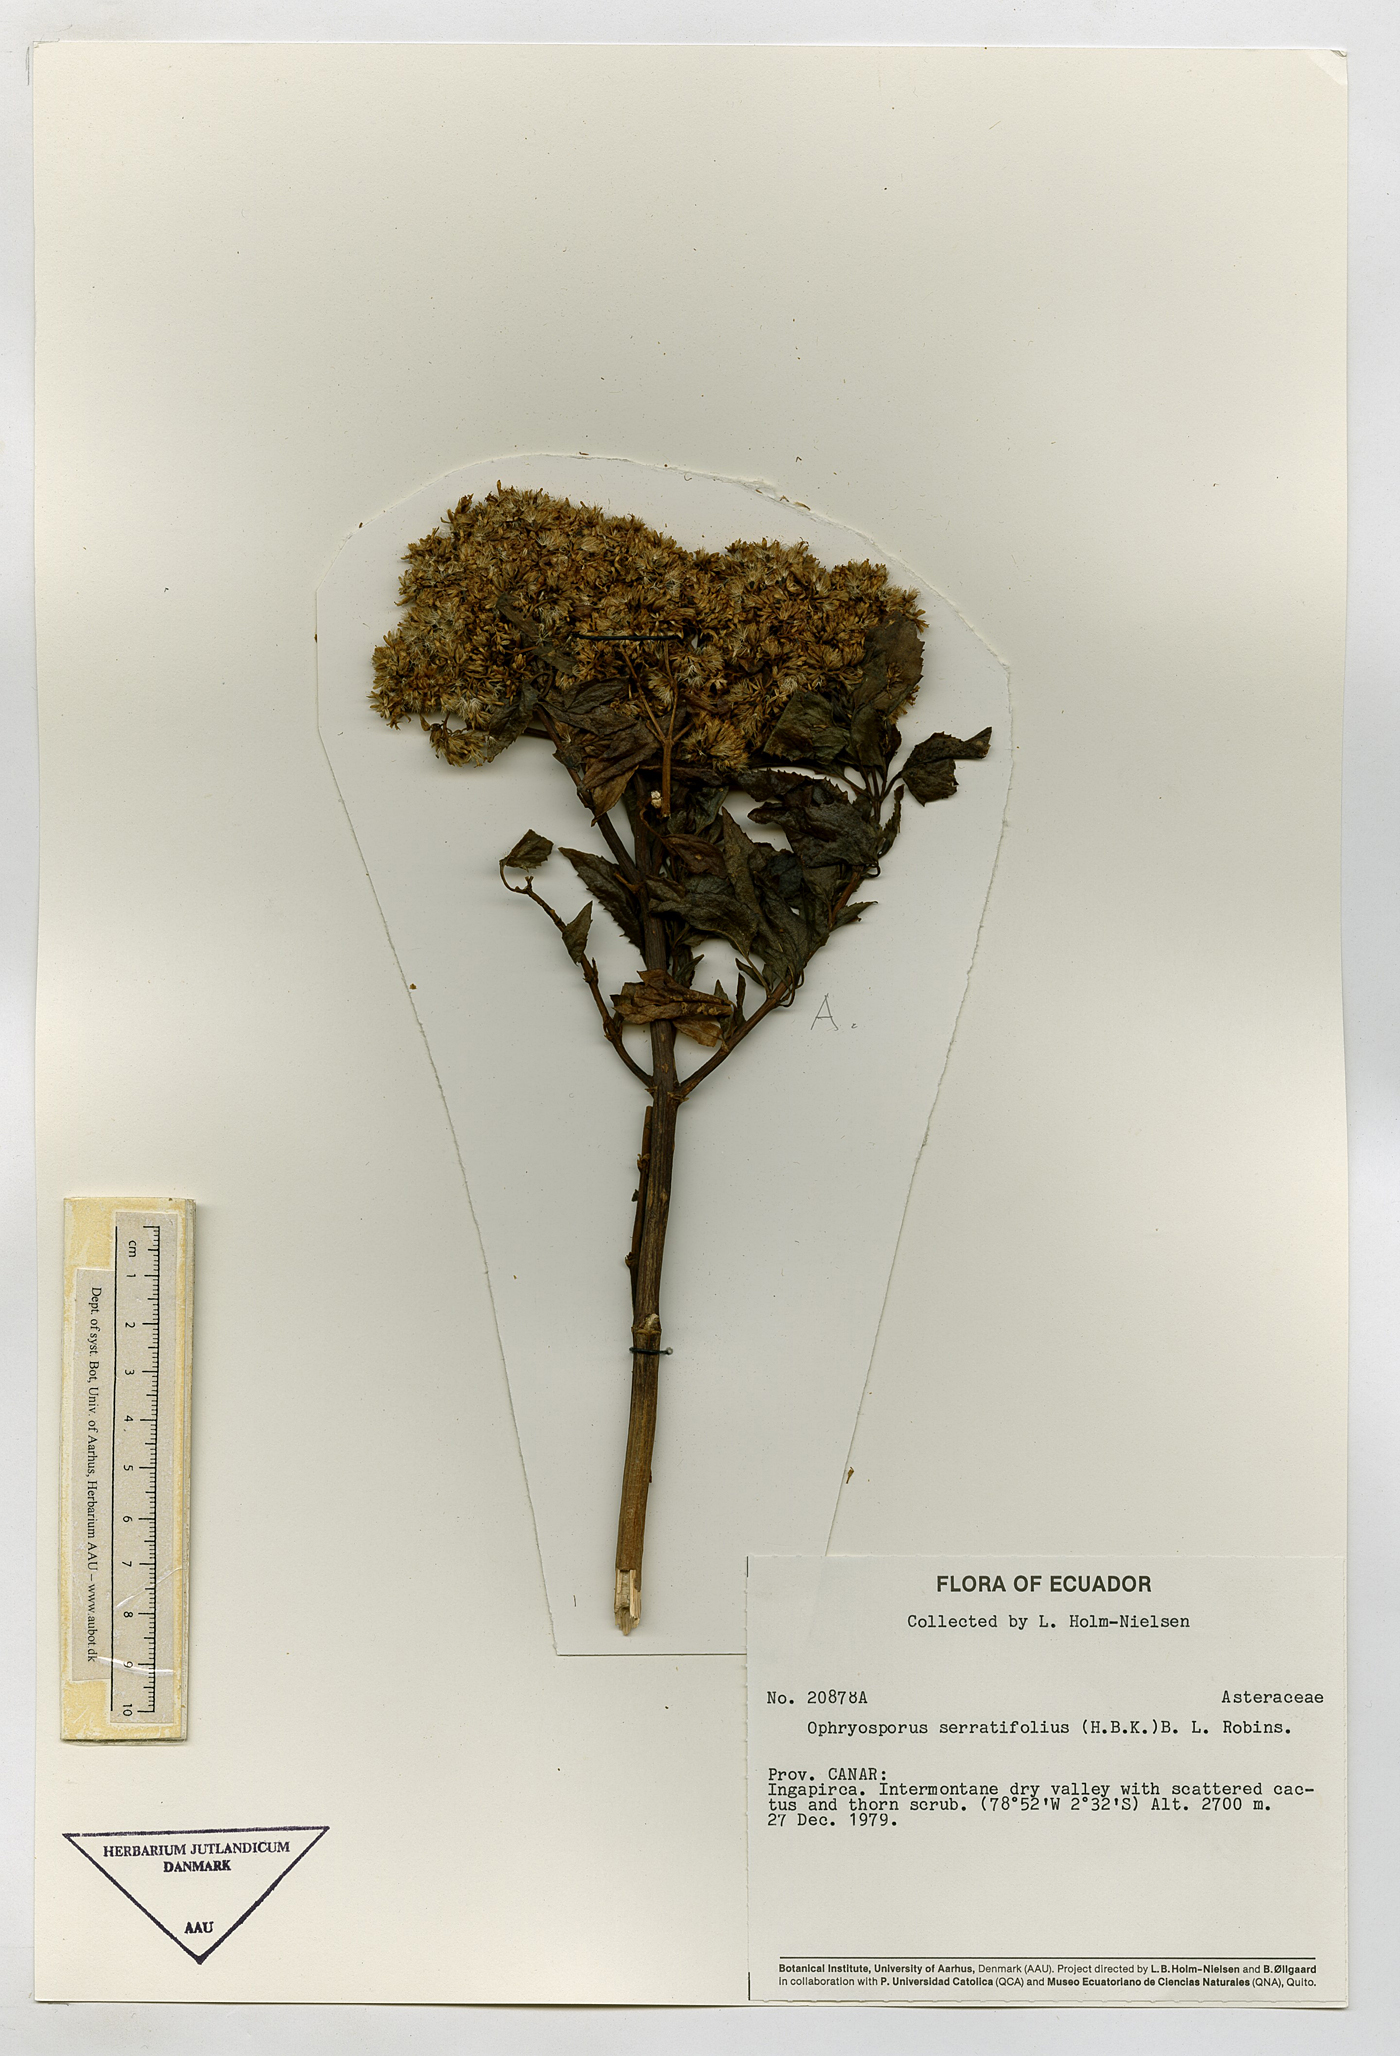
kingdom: Plantae
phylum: Tracheophyta
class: Magnoliopsida
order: Asterales
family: Asteraceae
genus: Ophryosporus
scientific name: Ophryosporus serratifolius
